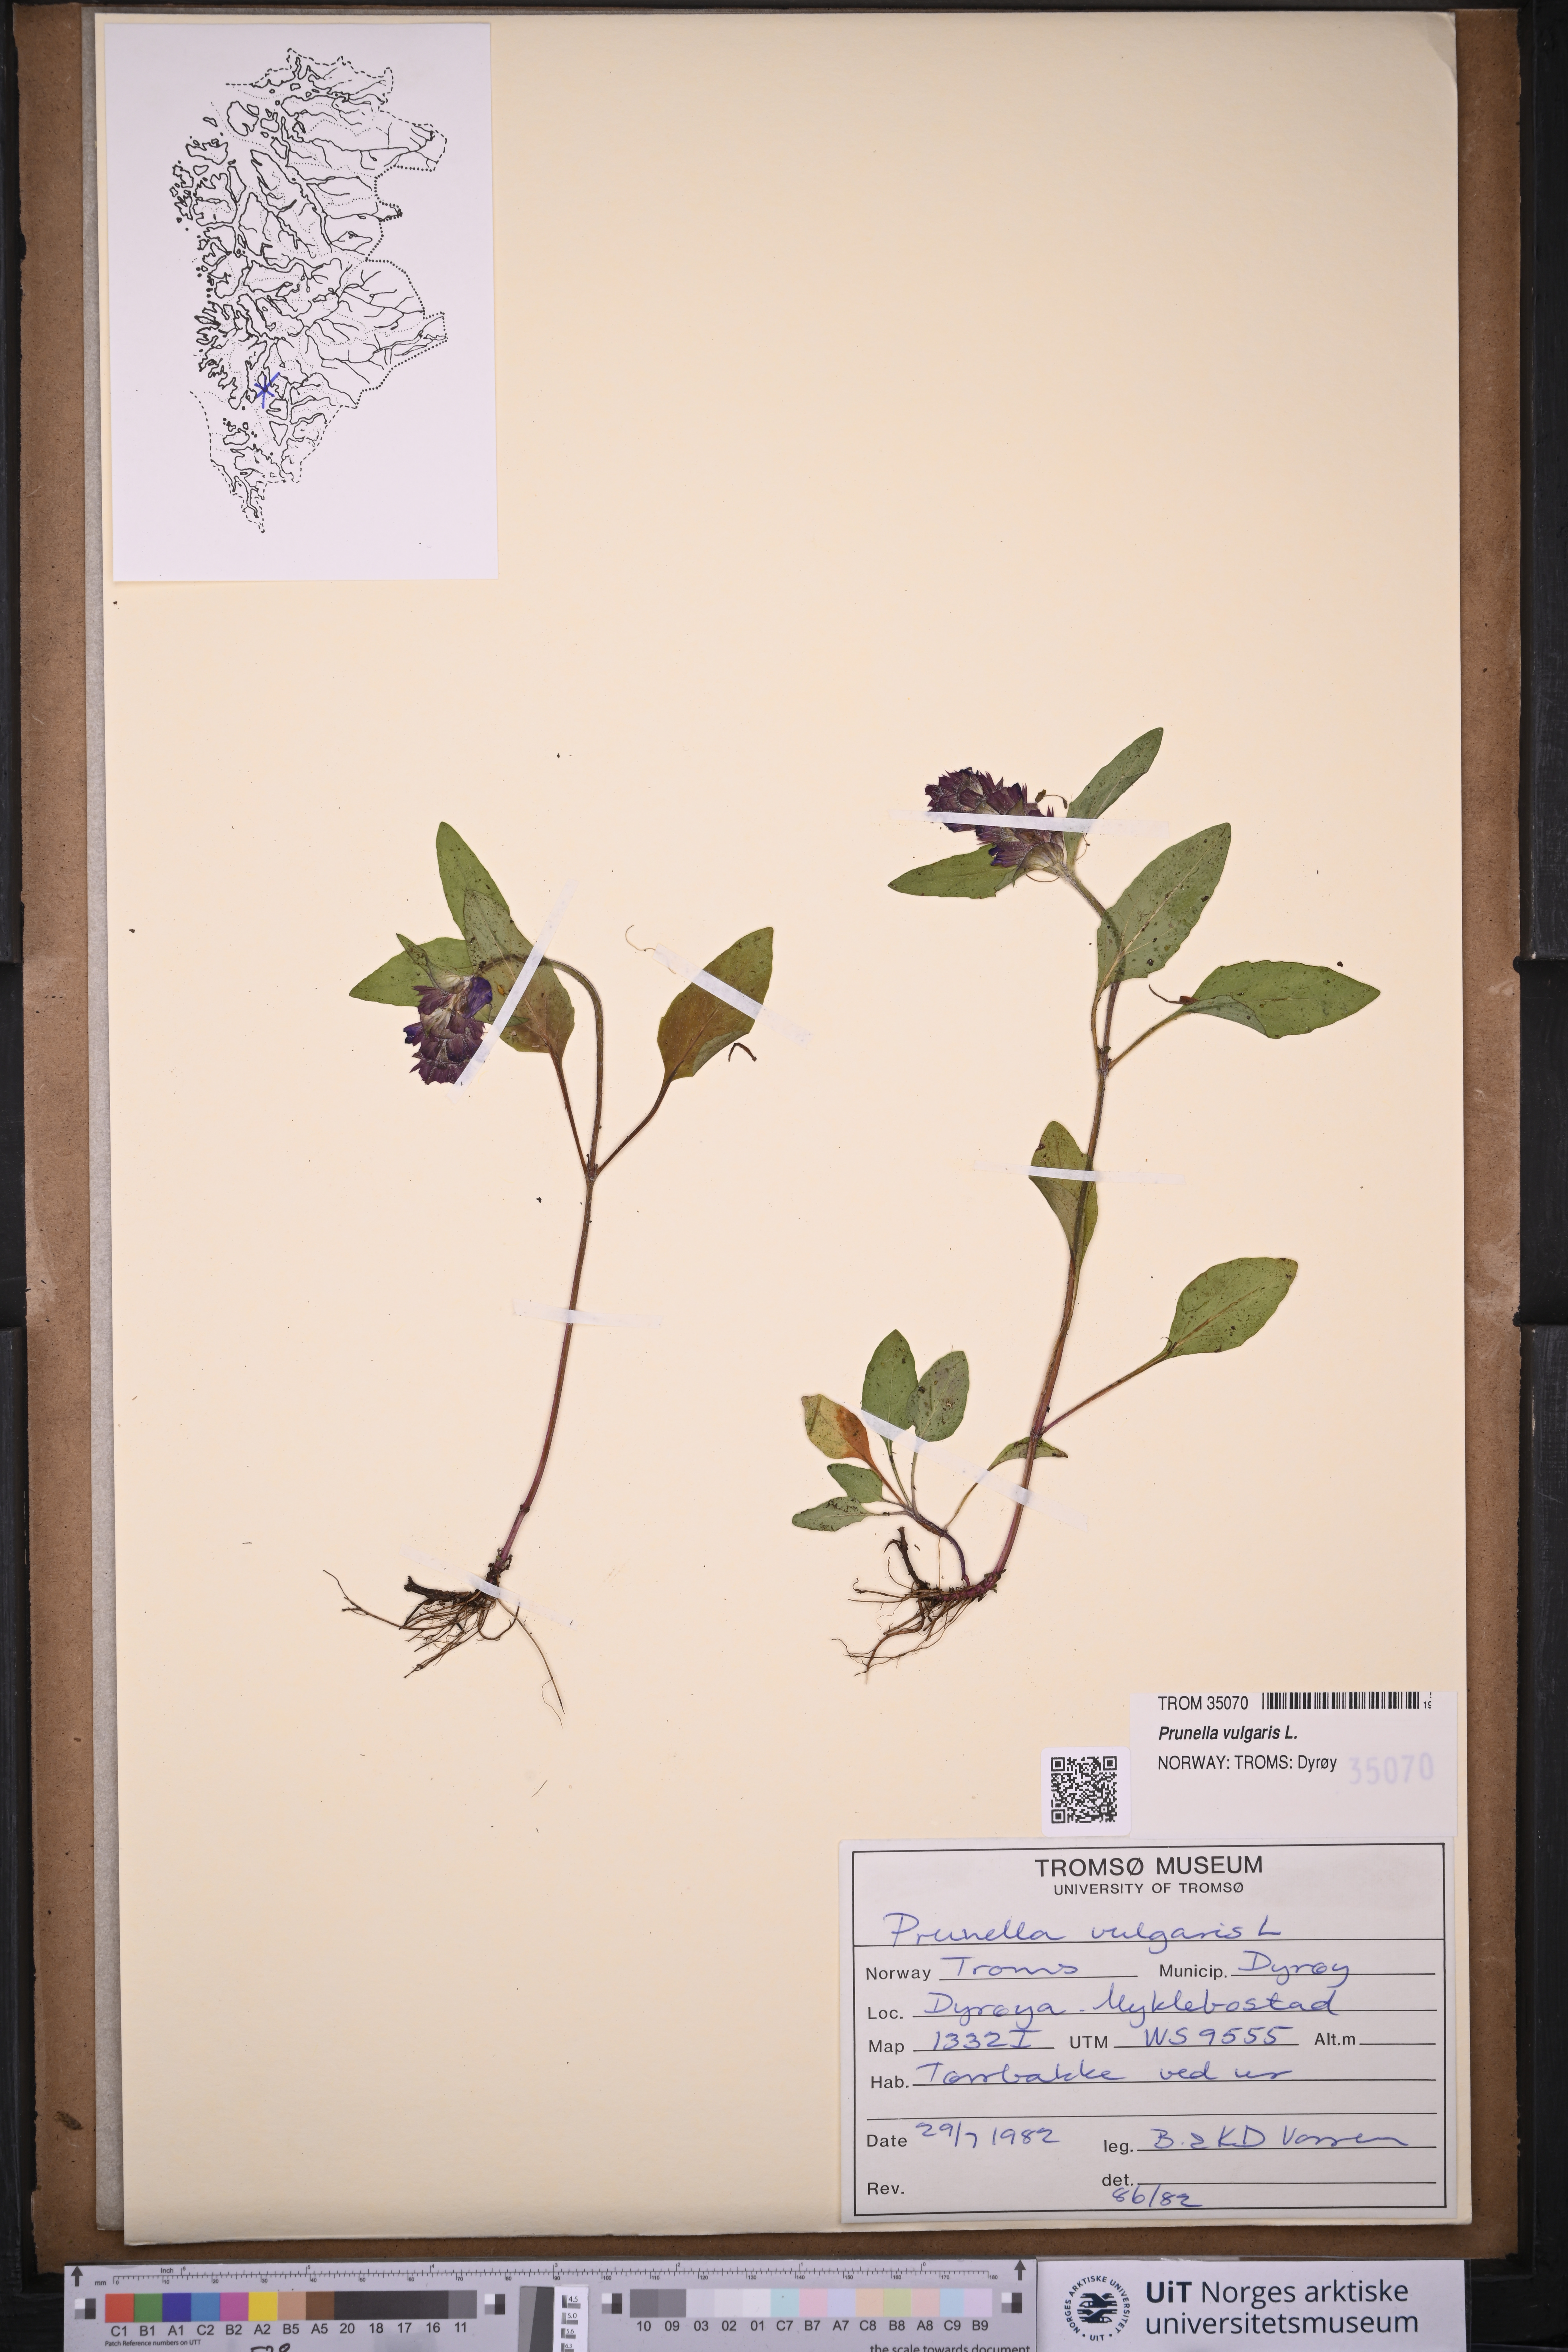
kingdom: Plantae
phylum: Tracheophyta
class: Magnoliopsida
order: Lamiales
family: Lamiaceae
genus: Prunella
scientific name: Prunella vulgaris
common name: Heal-all
